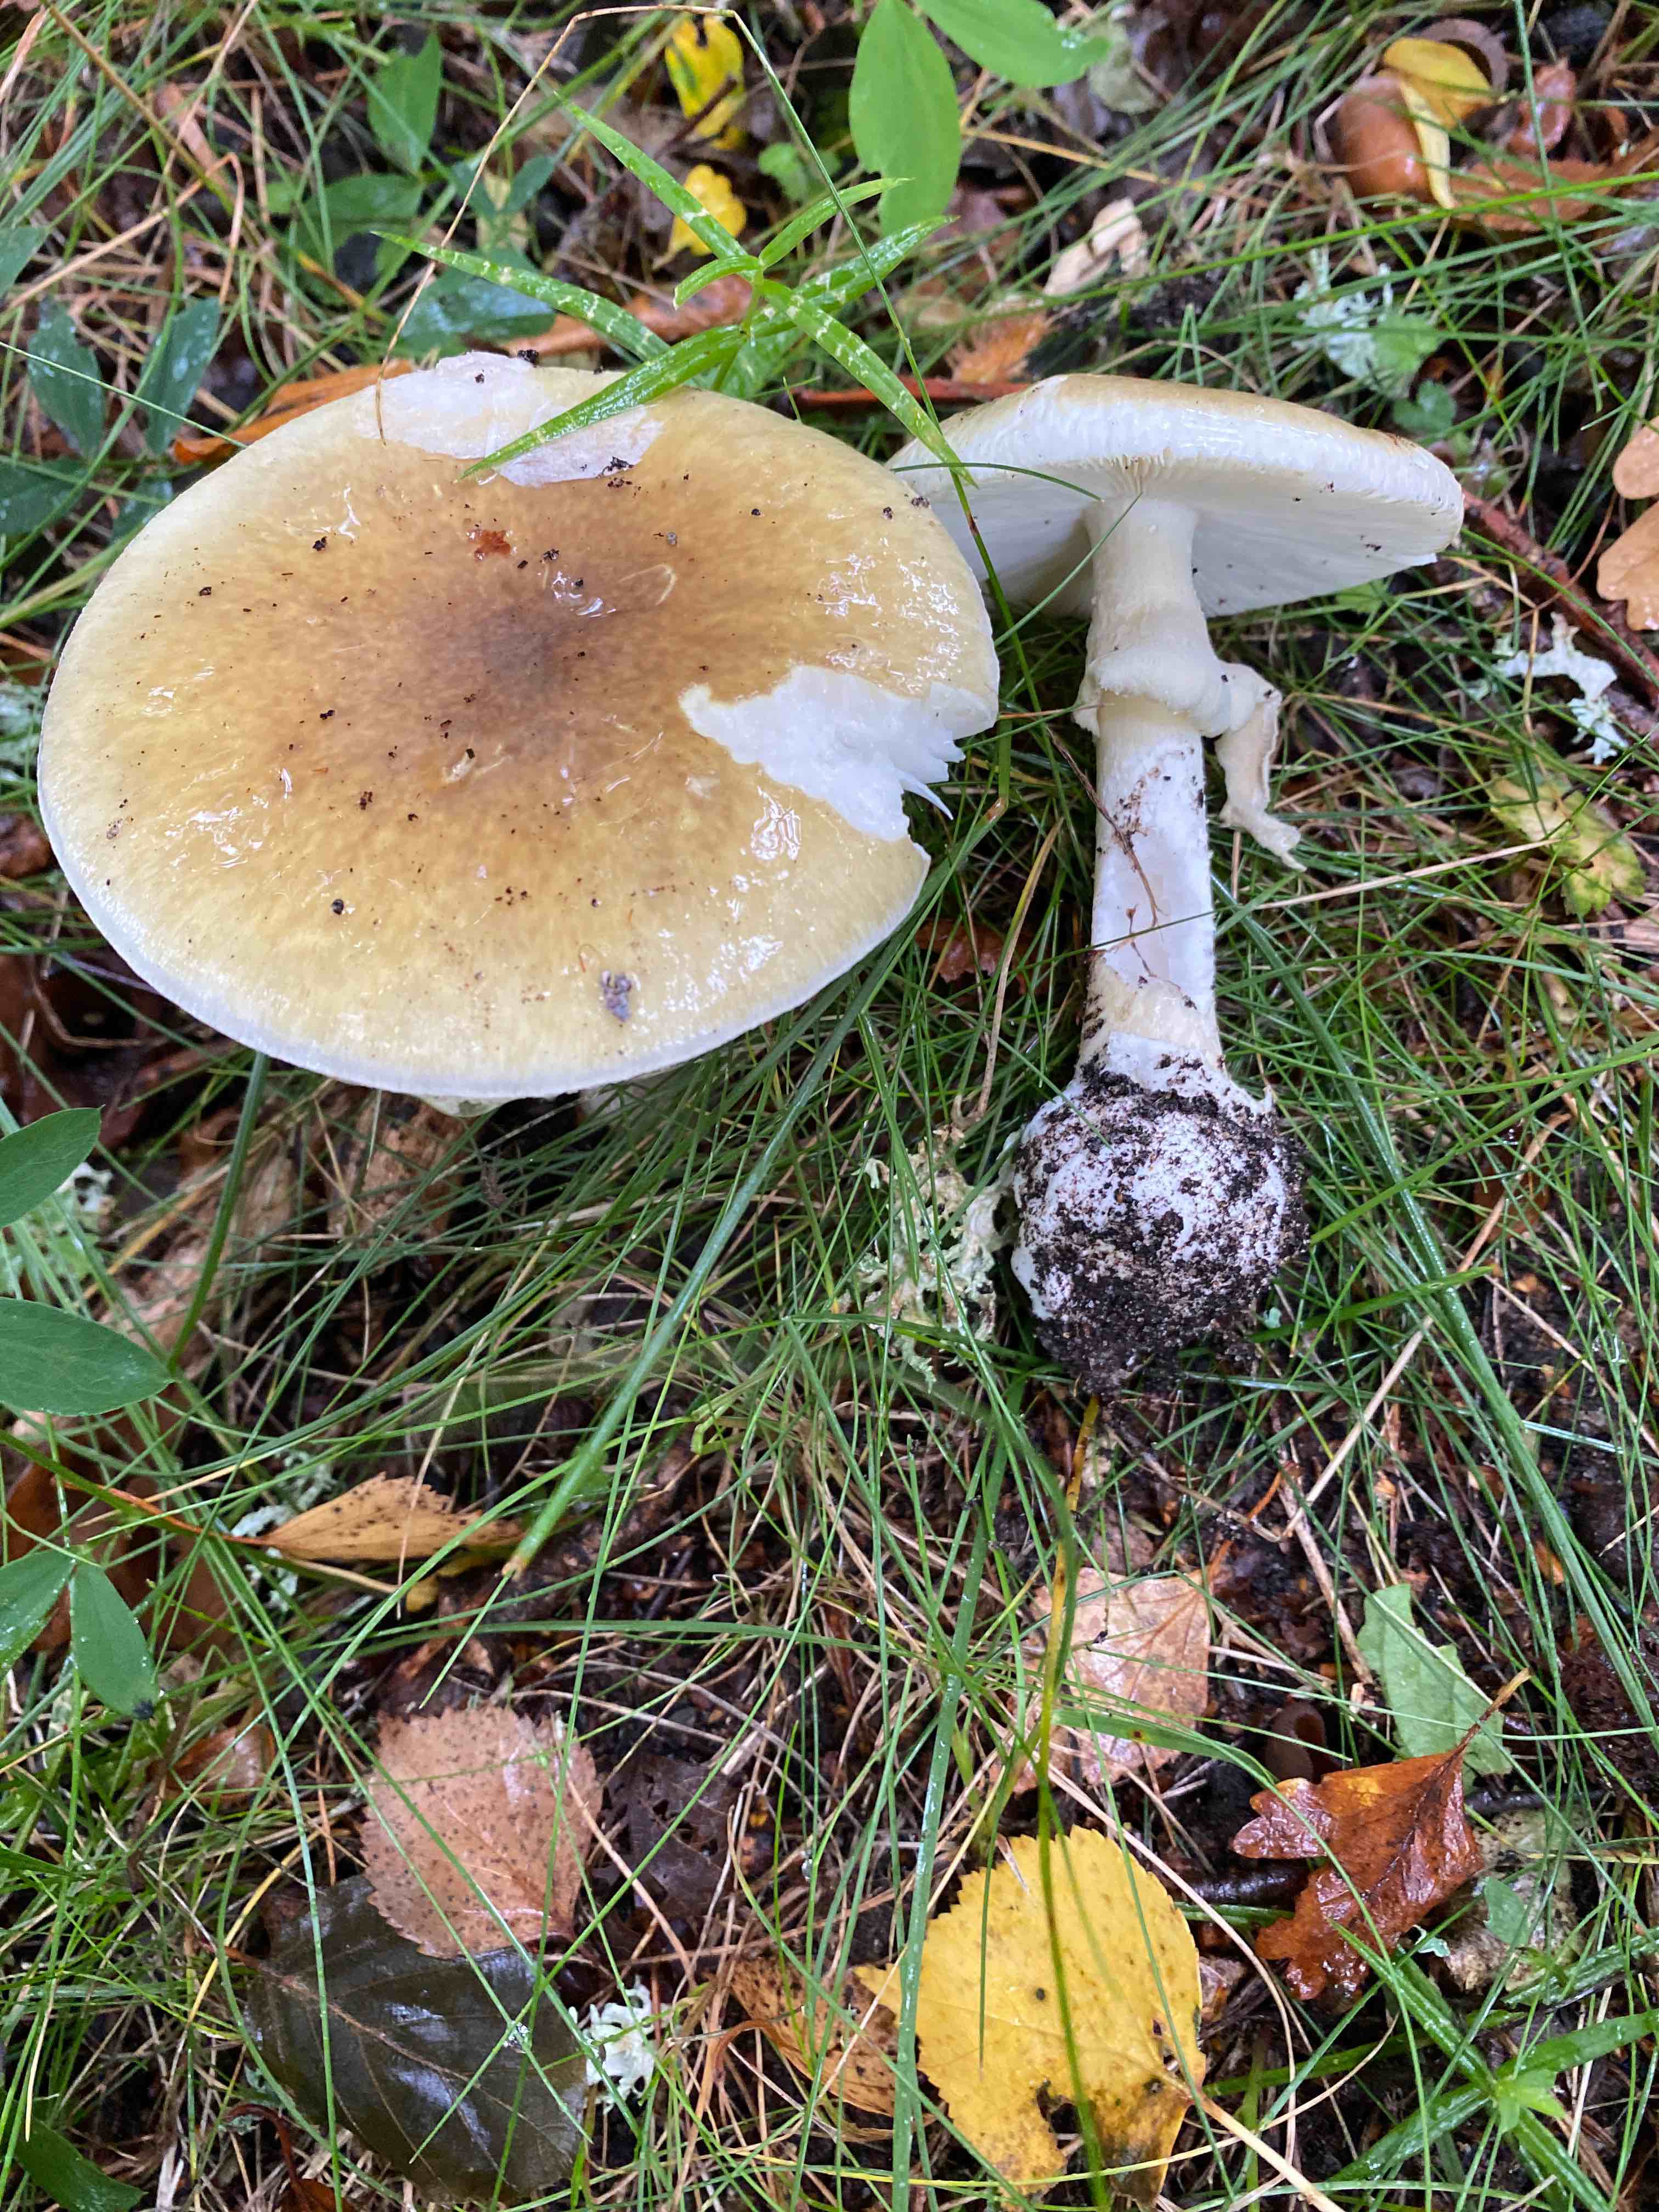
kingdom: Fungi
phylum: Basidiomycota
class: Agaricomycetes
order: Agaricales
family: Amanitaceae
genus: Amanita
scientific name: Amanita phalloides
